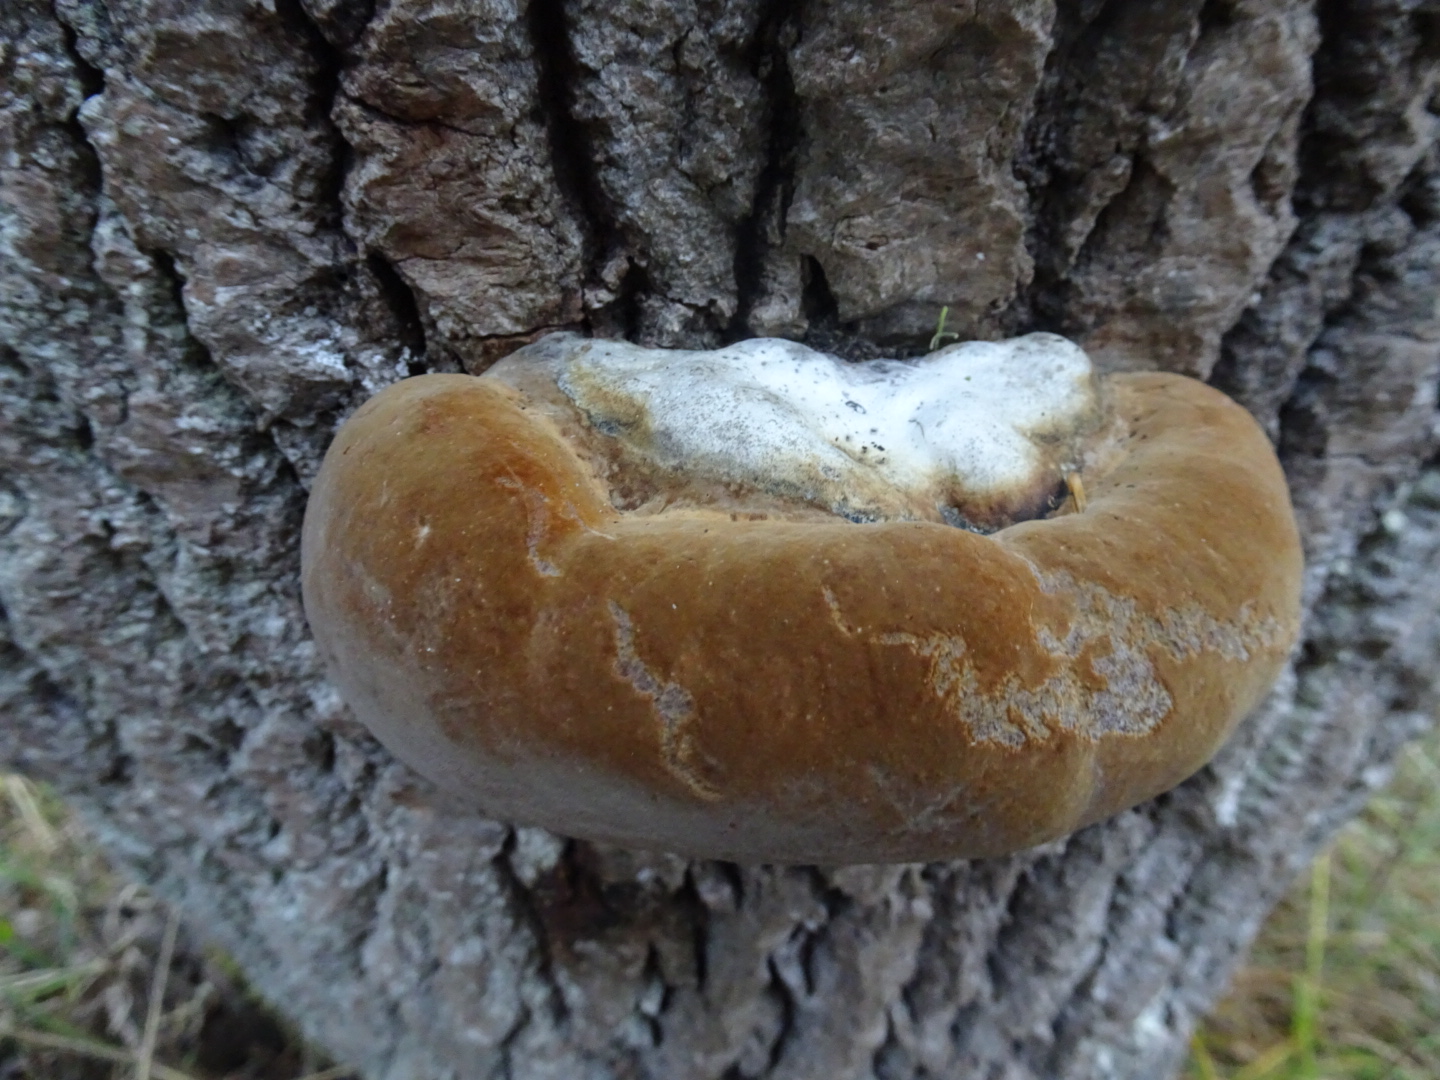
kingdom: Fungi
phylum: Basidiomycota
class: Agaricomycetes
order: Hymenochaetales
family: Hymenochaetaceae
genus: Phellinus
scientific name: Phellinus populicola
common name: poppel-ildporesvamp
